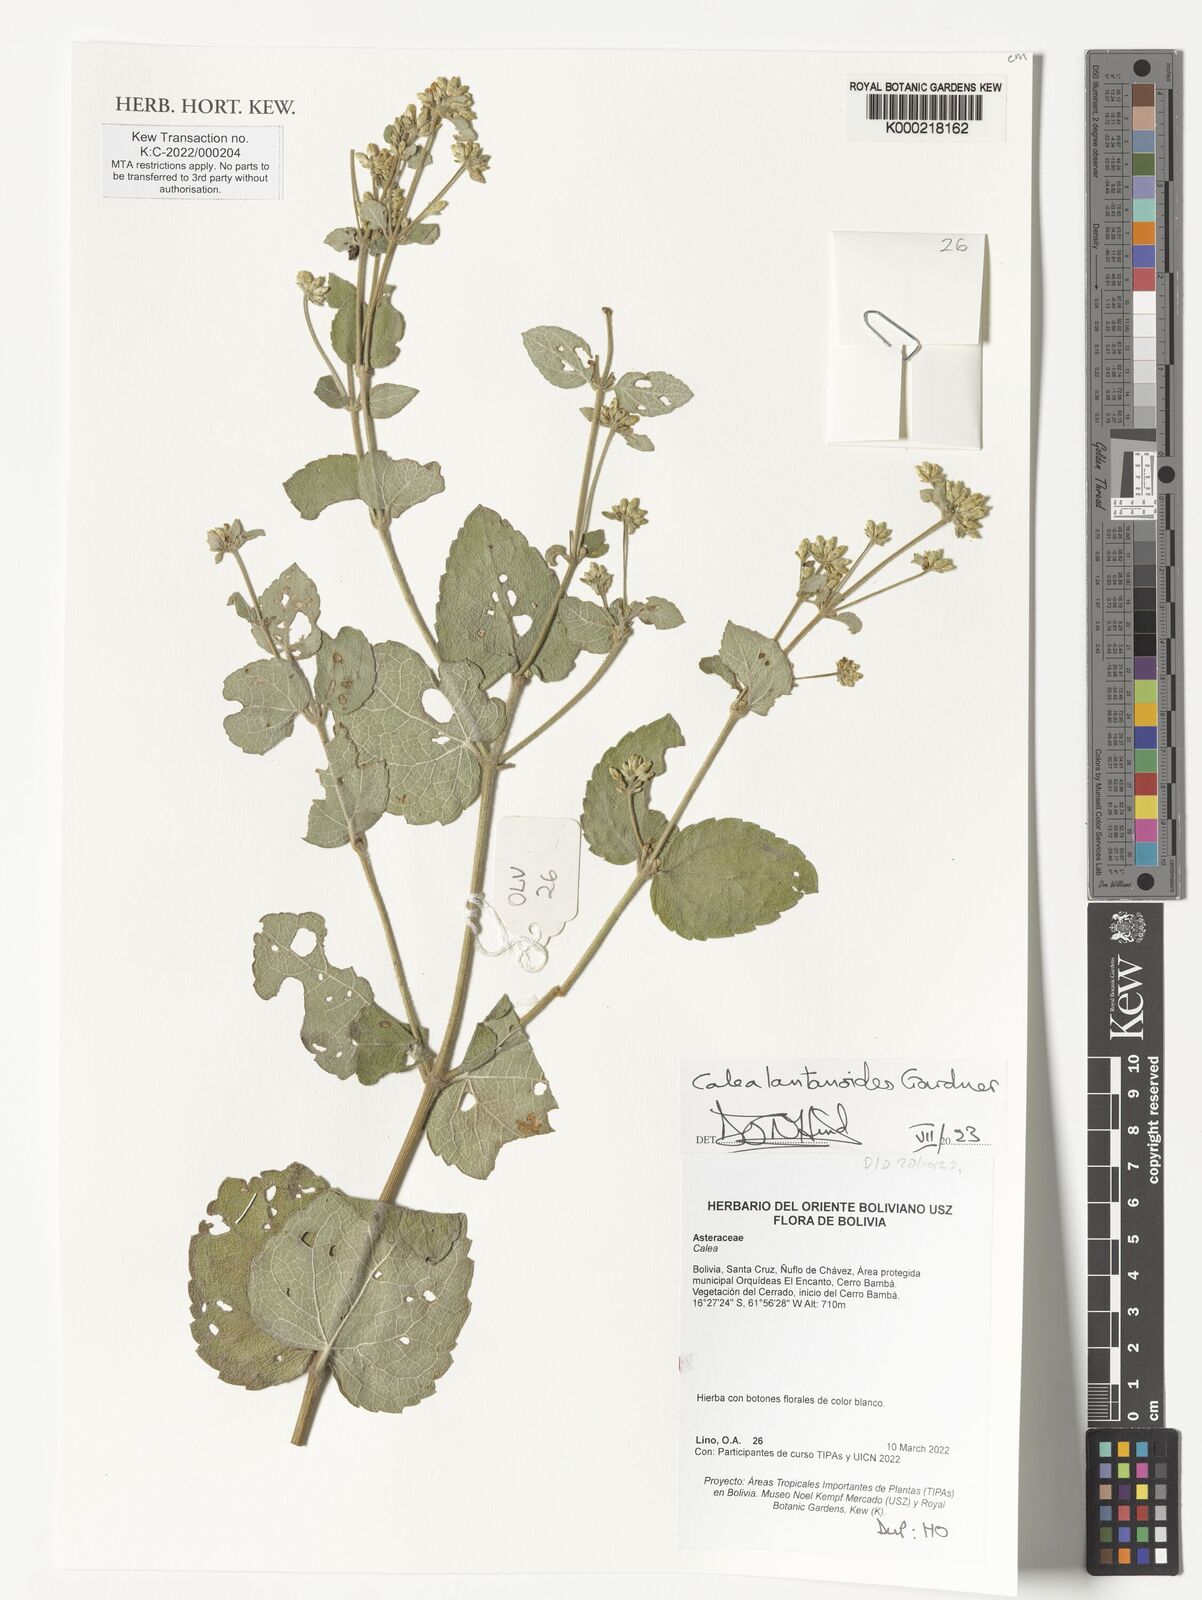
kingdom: Plantae
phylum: Tracheophyta
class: Magnoliopsida
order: Asterales
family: Asteraceae
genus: Calea
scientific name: Calea lantanoides
